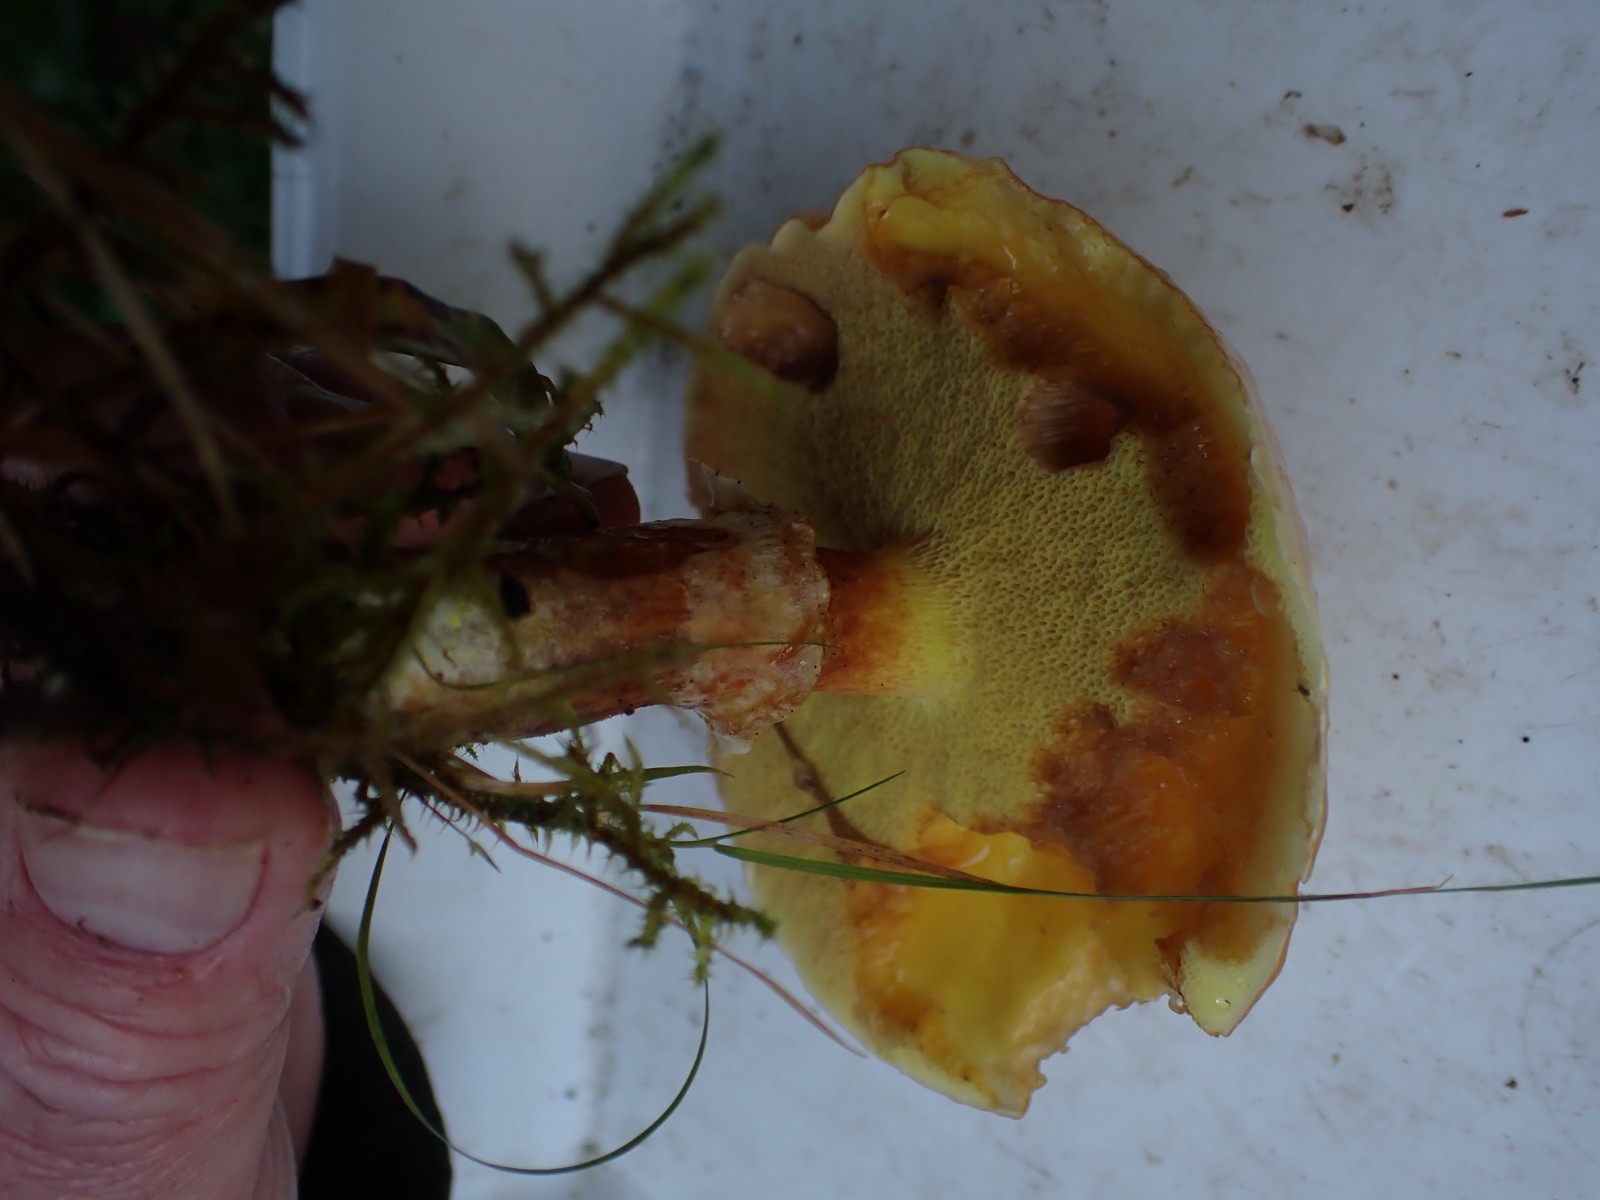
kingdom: Fungi
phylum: Basidiomycota
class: Agaricomycetes
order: Boletales
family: Suillaceae
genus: Suillus
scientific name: Suillus grevillei
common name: lærke-slimrørhat
